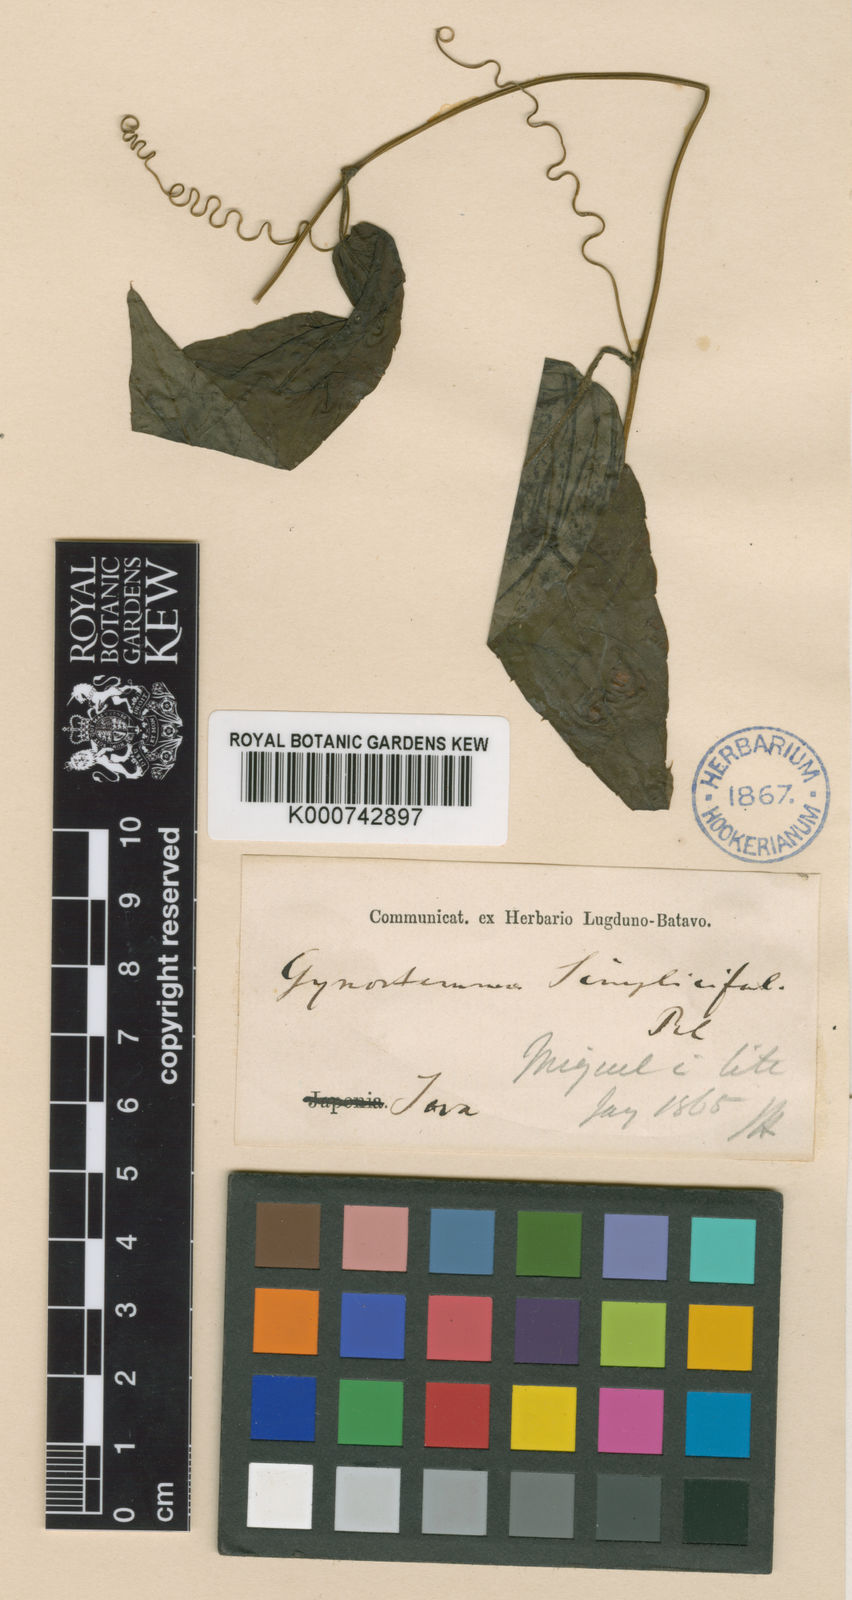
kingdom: Plantae
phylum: Tracheophyta
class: Magnoliopsida
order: Cucurbitales
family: Cucurbitaceae
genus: Gynostemma
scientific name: Gynostemma pentaphyllum
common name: Gynostemma
